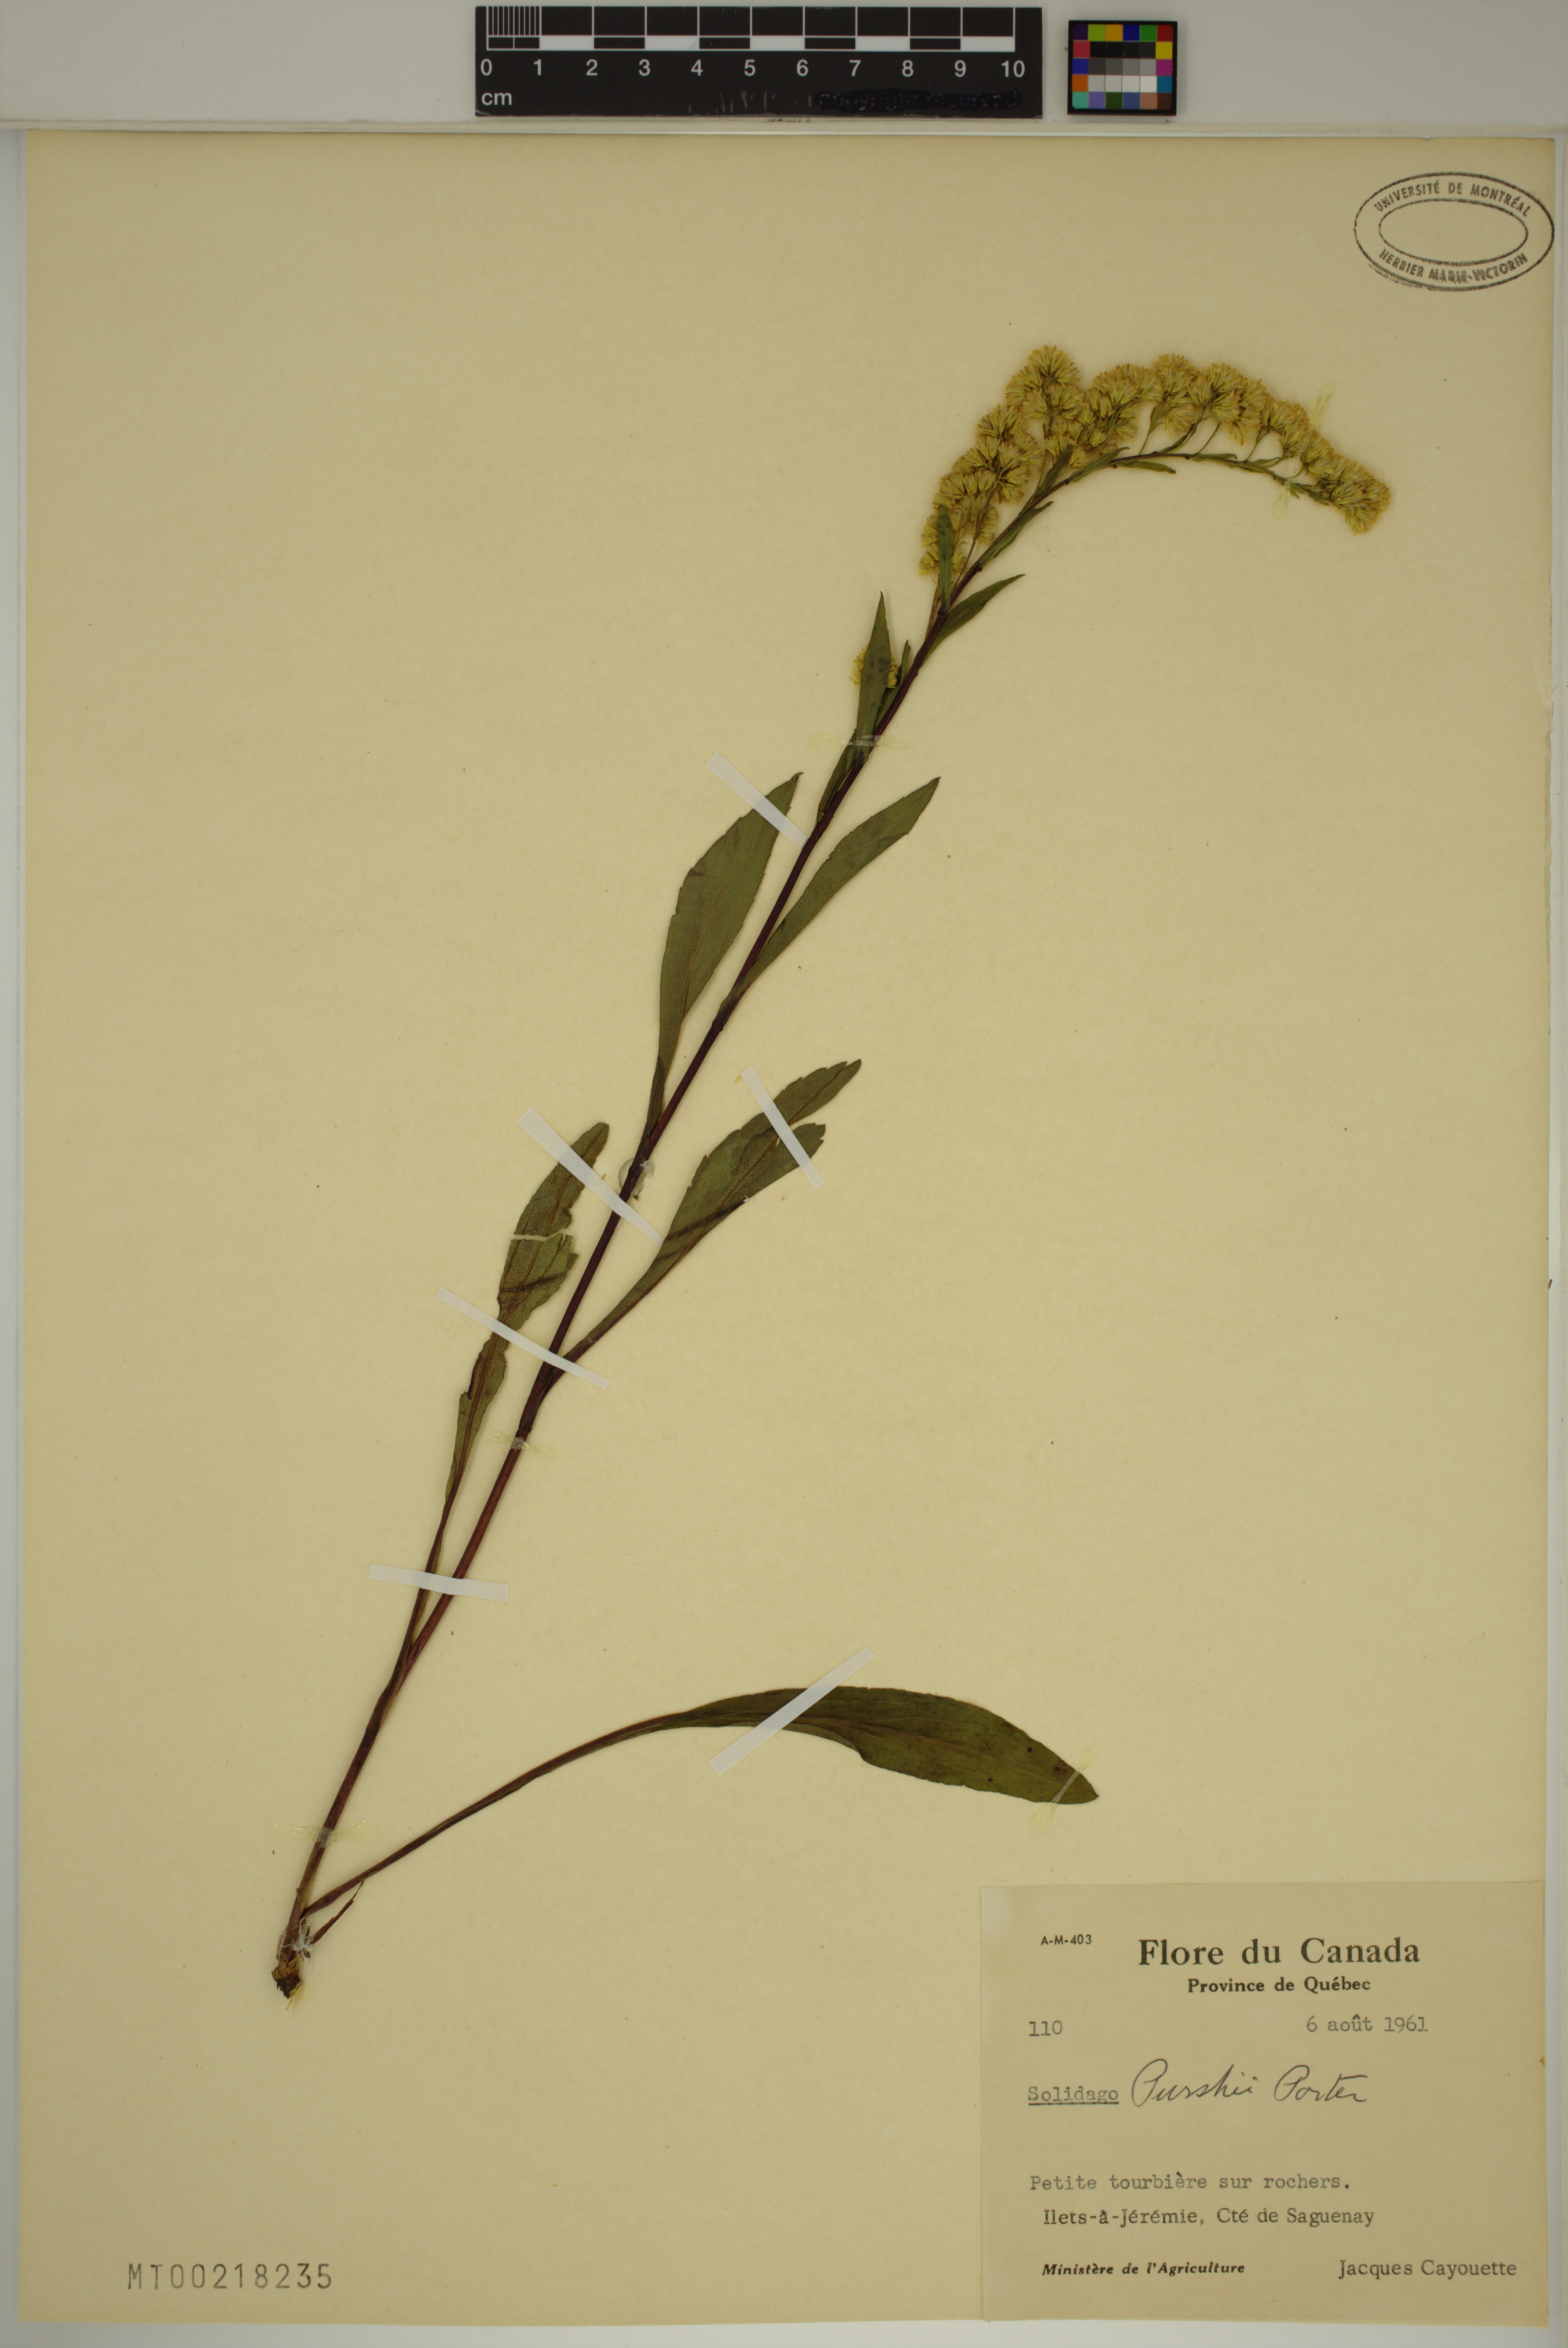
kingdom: Plantae
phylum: Tracheophyta
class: Magnoliopsida
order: Asterales
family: Asteraceae
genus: Solidago
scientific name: Solidago uliginosa
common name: Bog goldenrod
